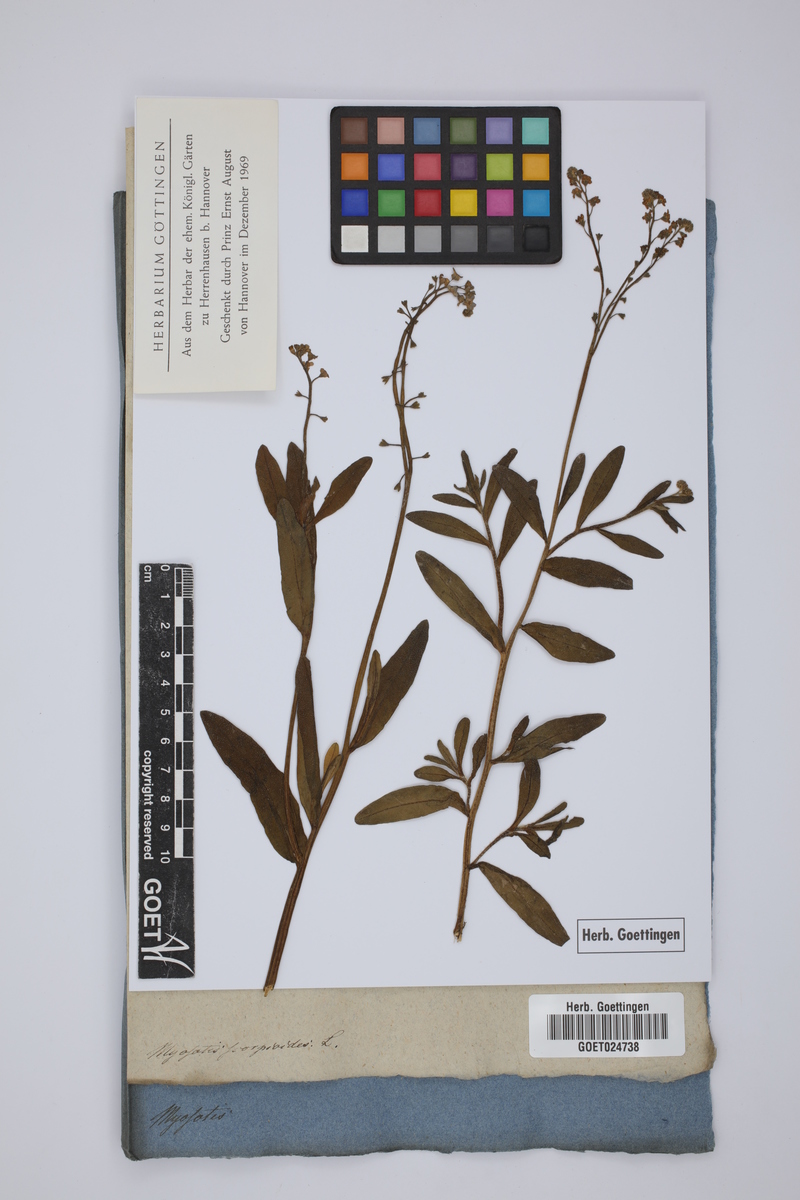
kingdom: Plantae
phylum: Tracheophyta
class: Magnoliopsida
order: Boraginales
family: Boraginaceae
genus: Myosotis
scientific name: Myosotis scorpioides
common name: Water forget-me-not
